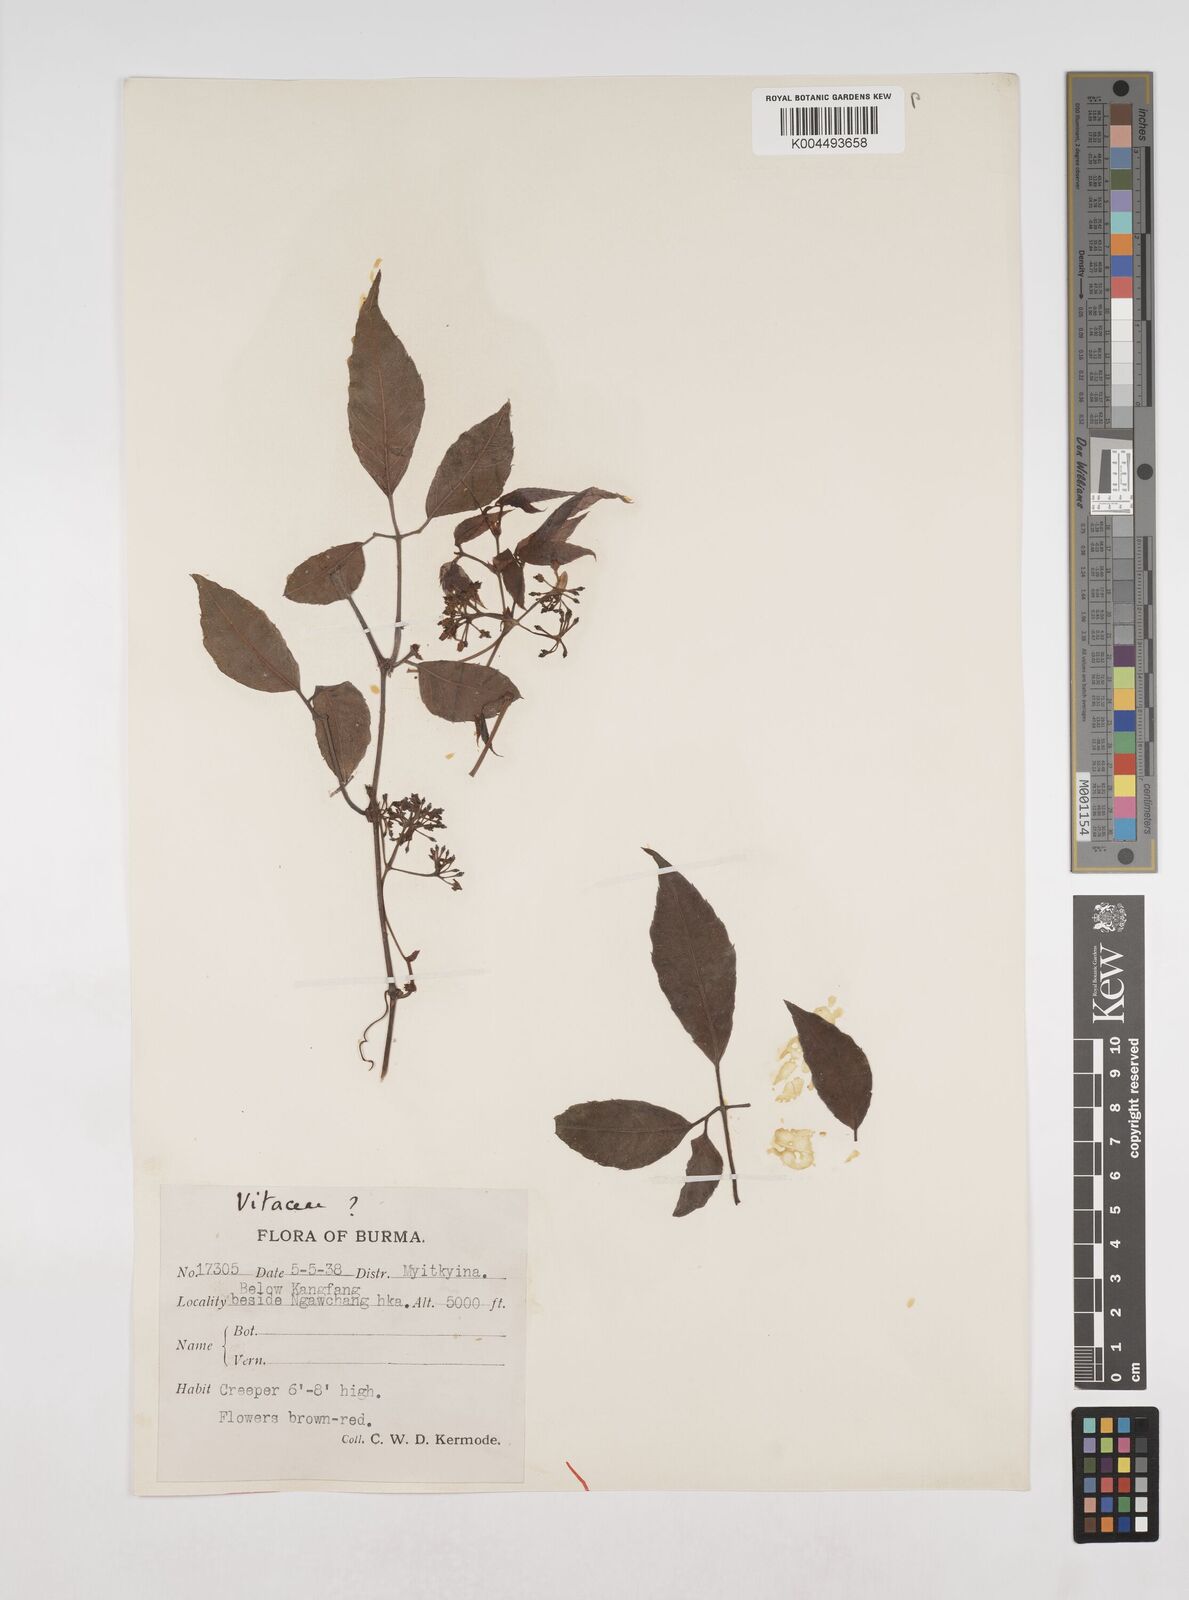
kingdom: Plantae
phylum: Tracheophyta
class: Magnoliopsida
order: Vitales
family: Vitaceae
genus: Tetrastigma
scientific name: Tetrastigma angustifolium
